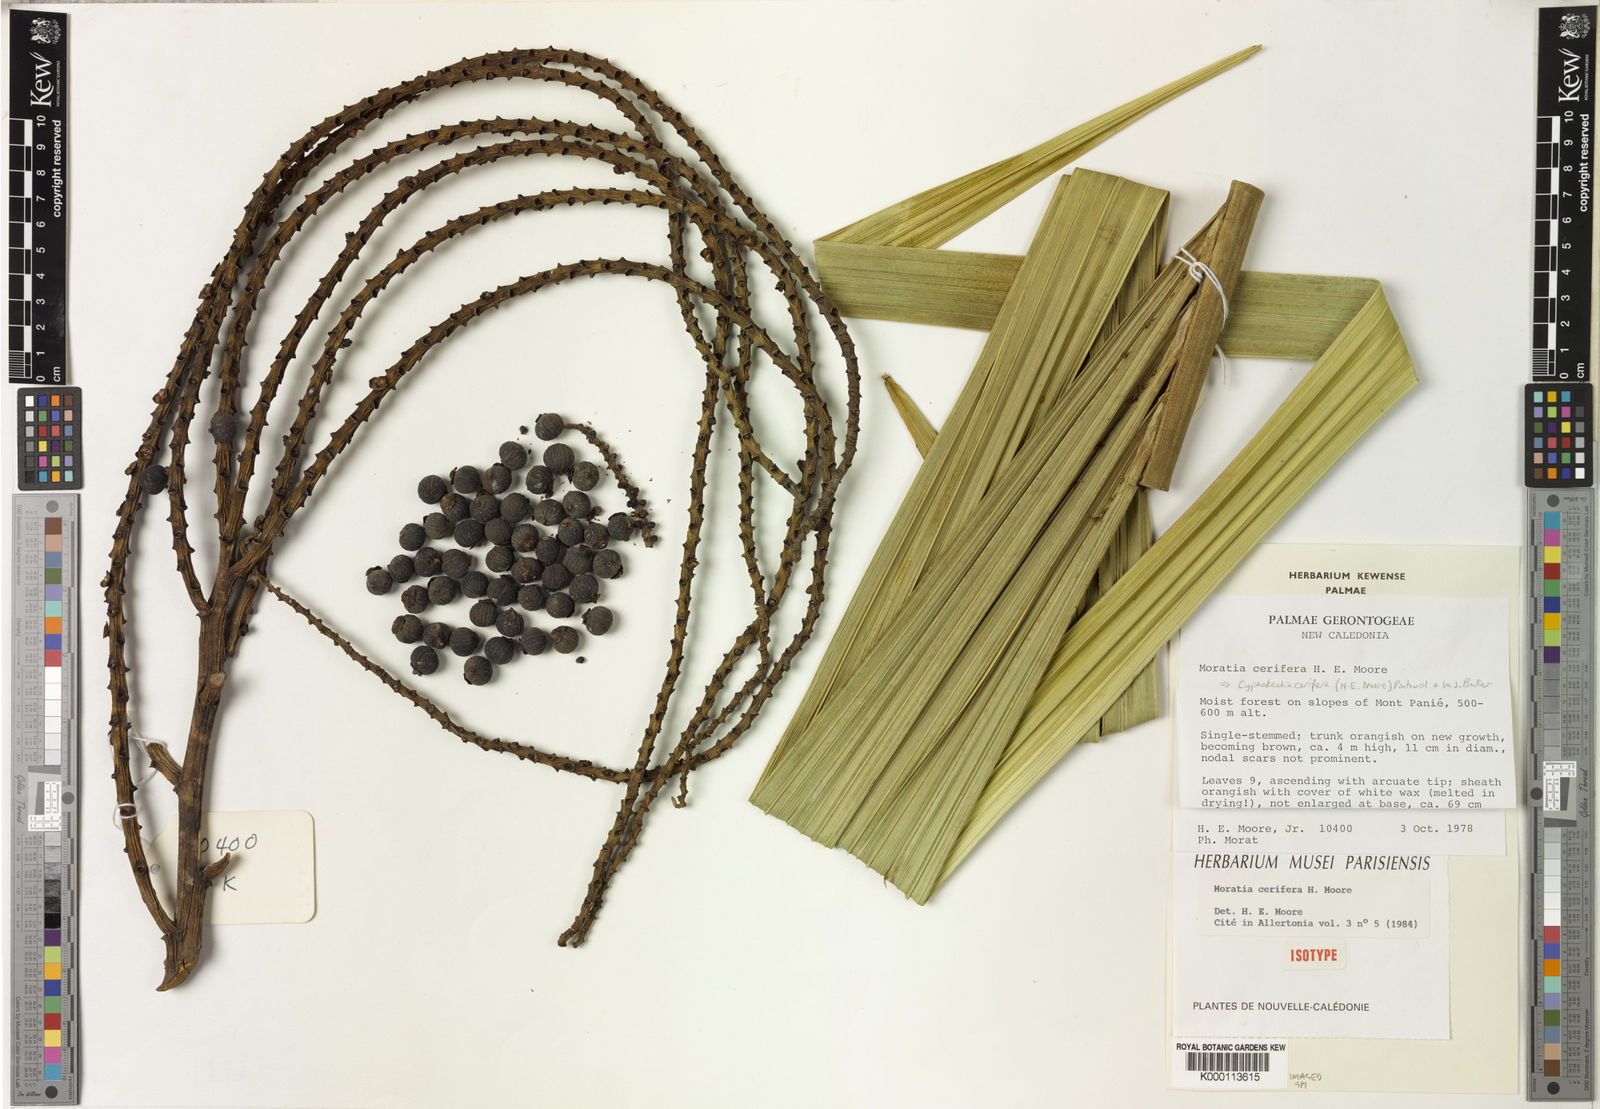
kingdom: Plantae
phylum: Tracheophyta
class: Liliopsida
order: Arecales
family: Arecaceae
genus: Cyphokentia
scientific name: Cyphokentia cerifera
